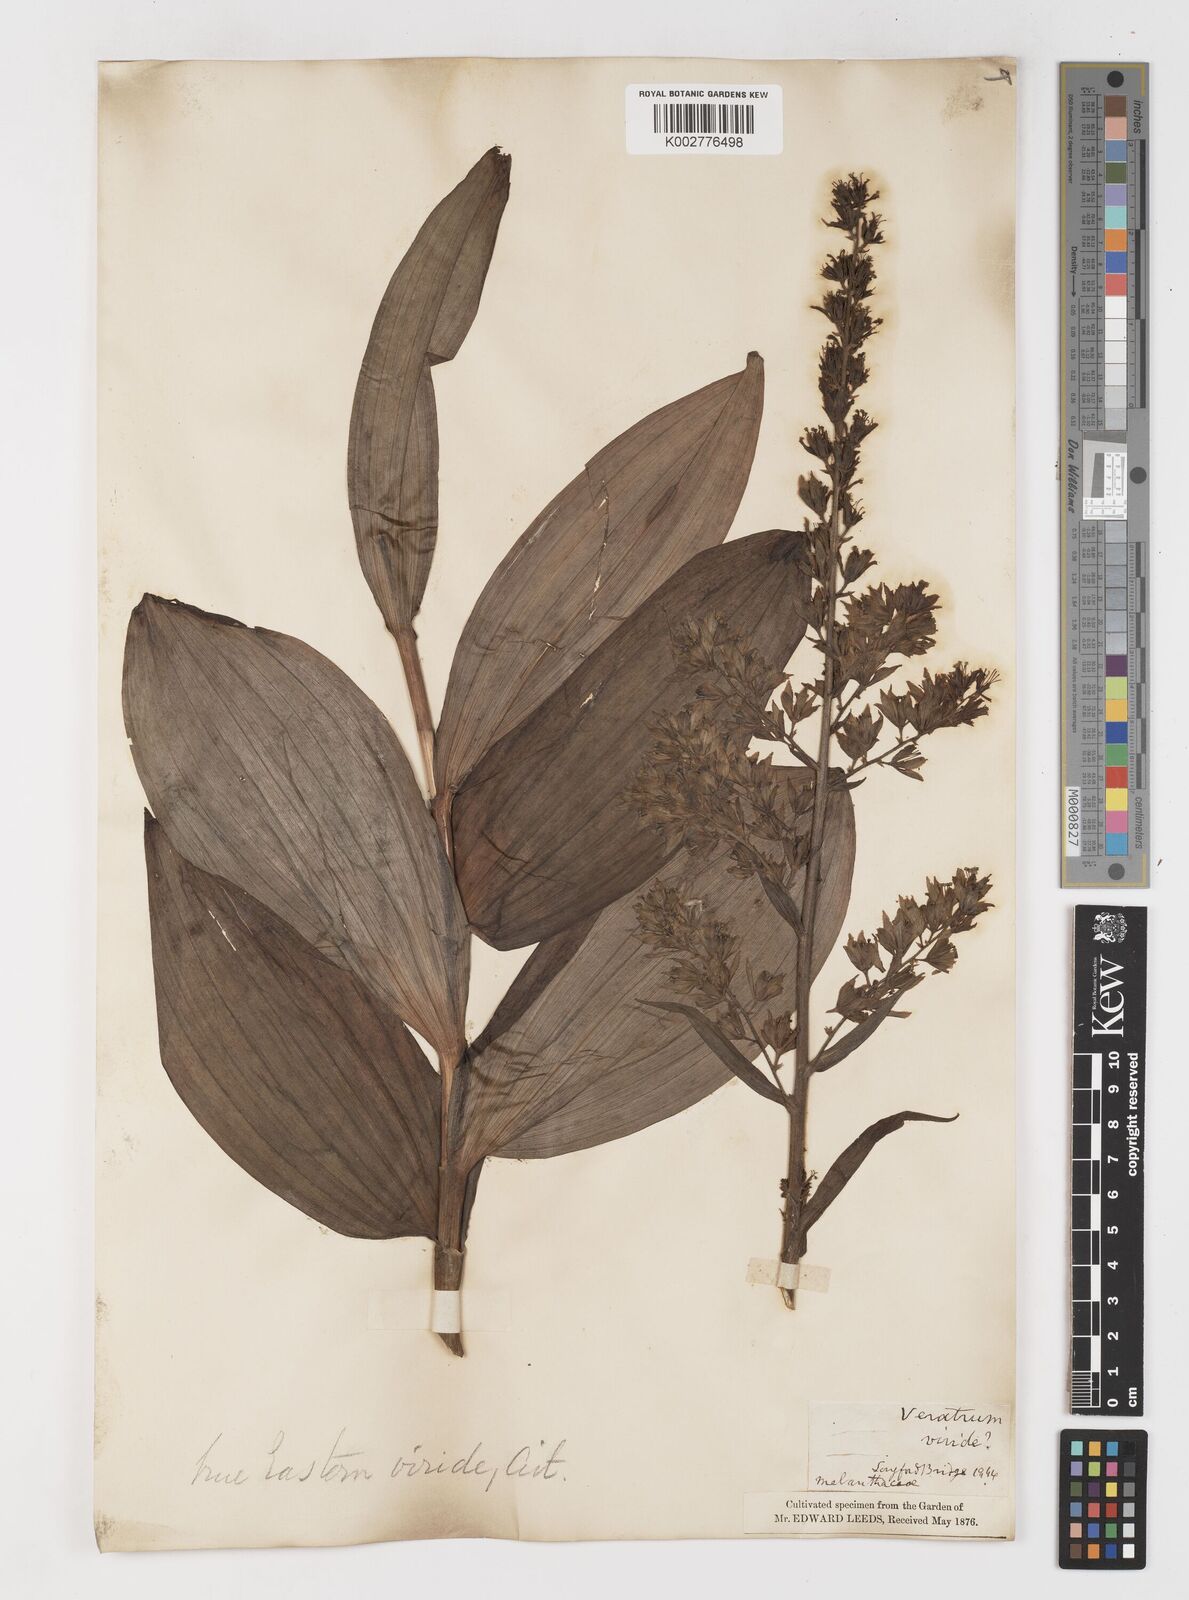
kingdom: Plantae
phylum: Tracheophyta
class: Liliopsida
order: Liliales
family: Melanthiaceae
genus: Veratrum
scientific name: Veratrum viride
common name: American false hellebore
